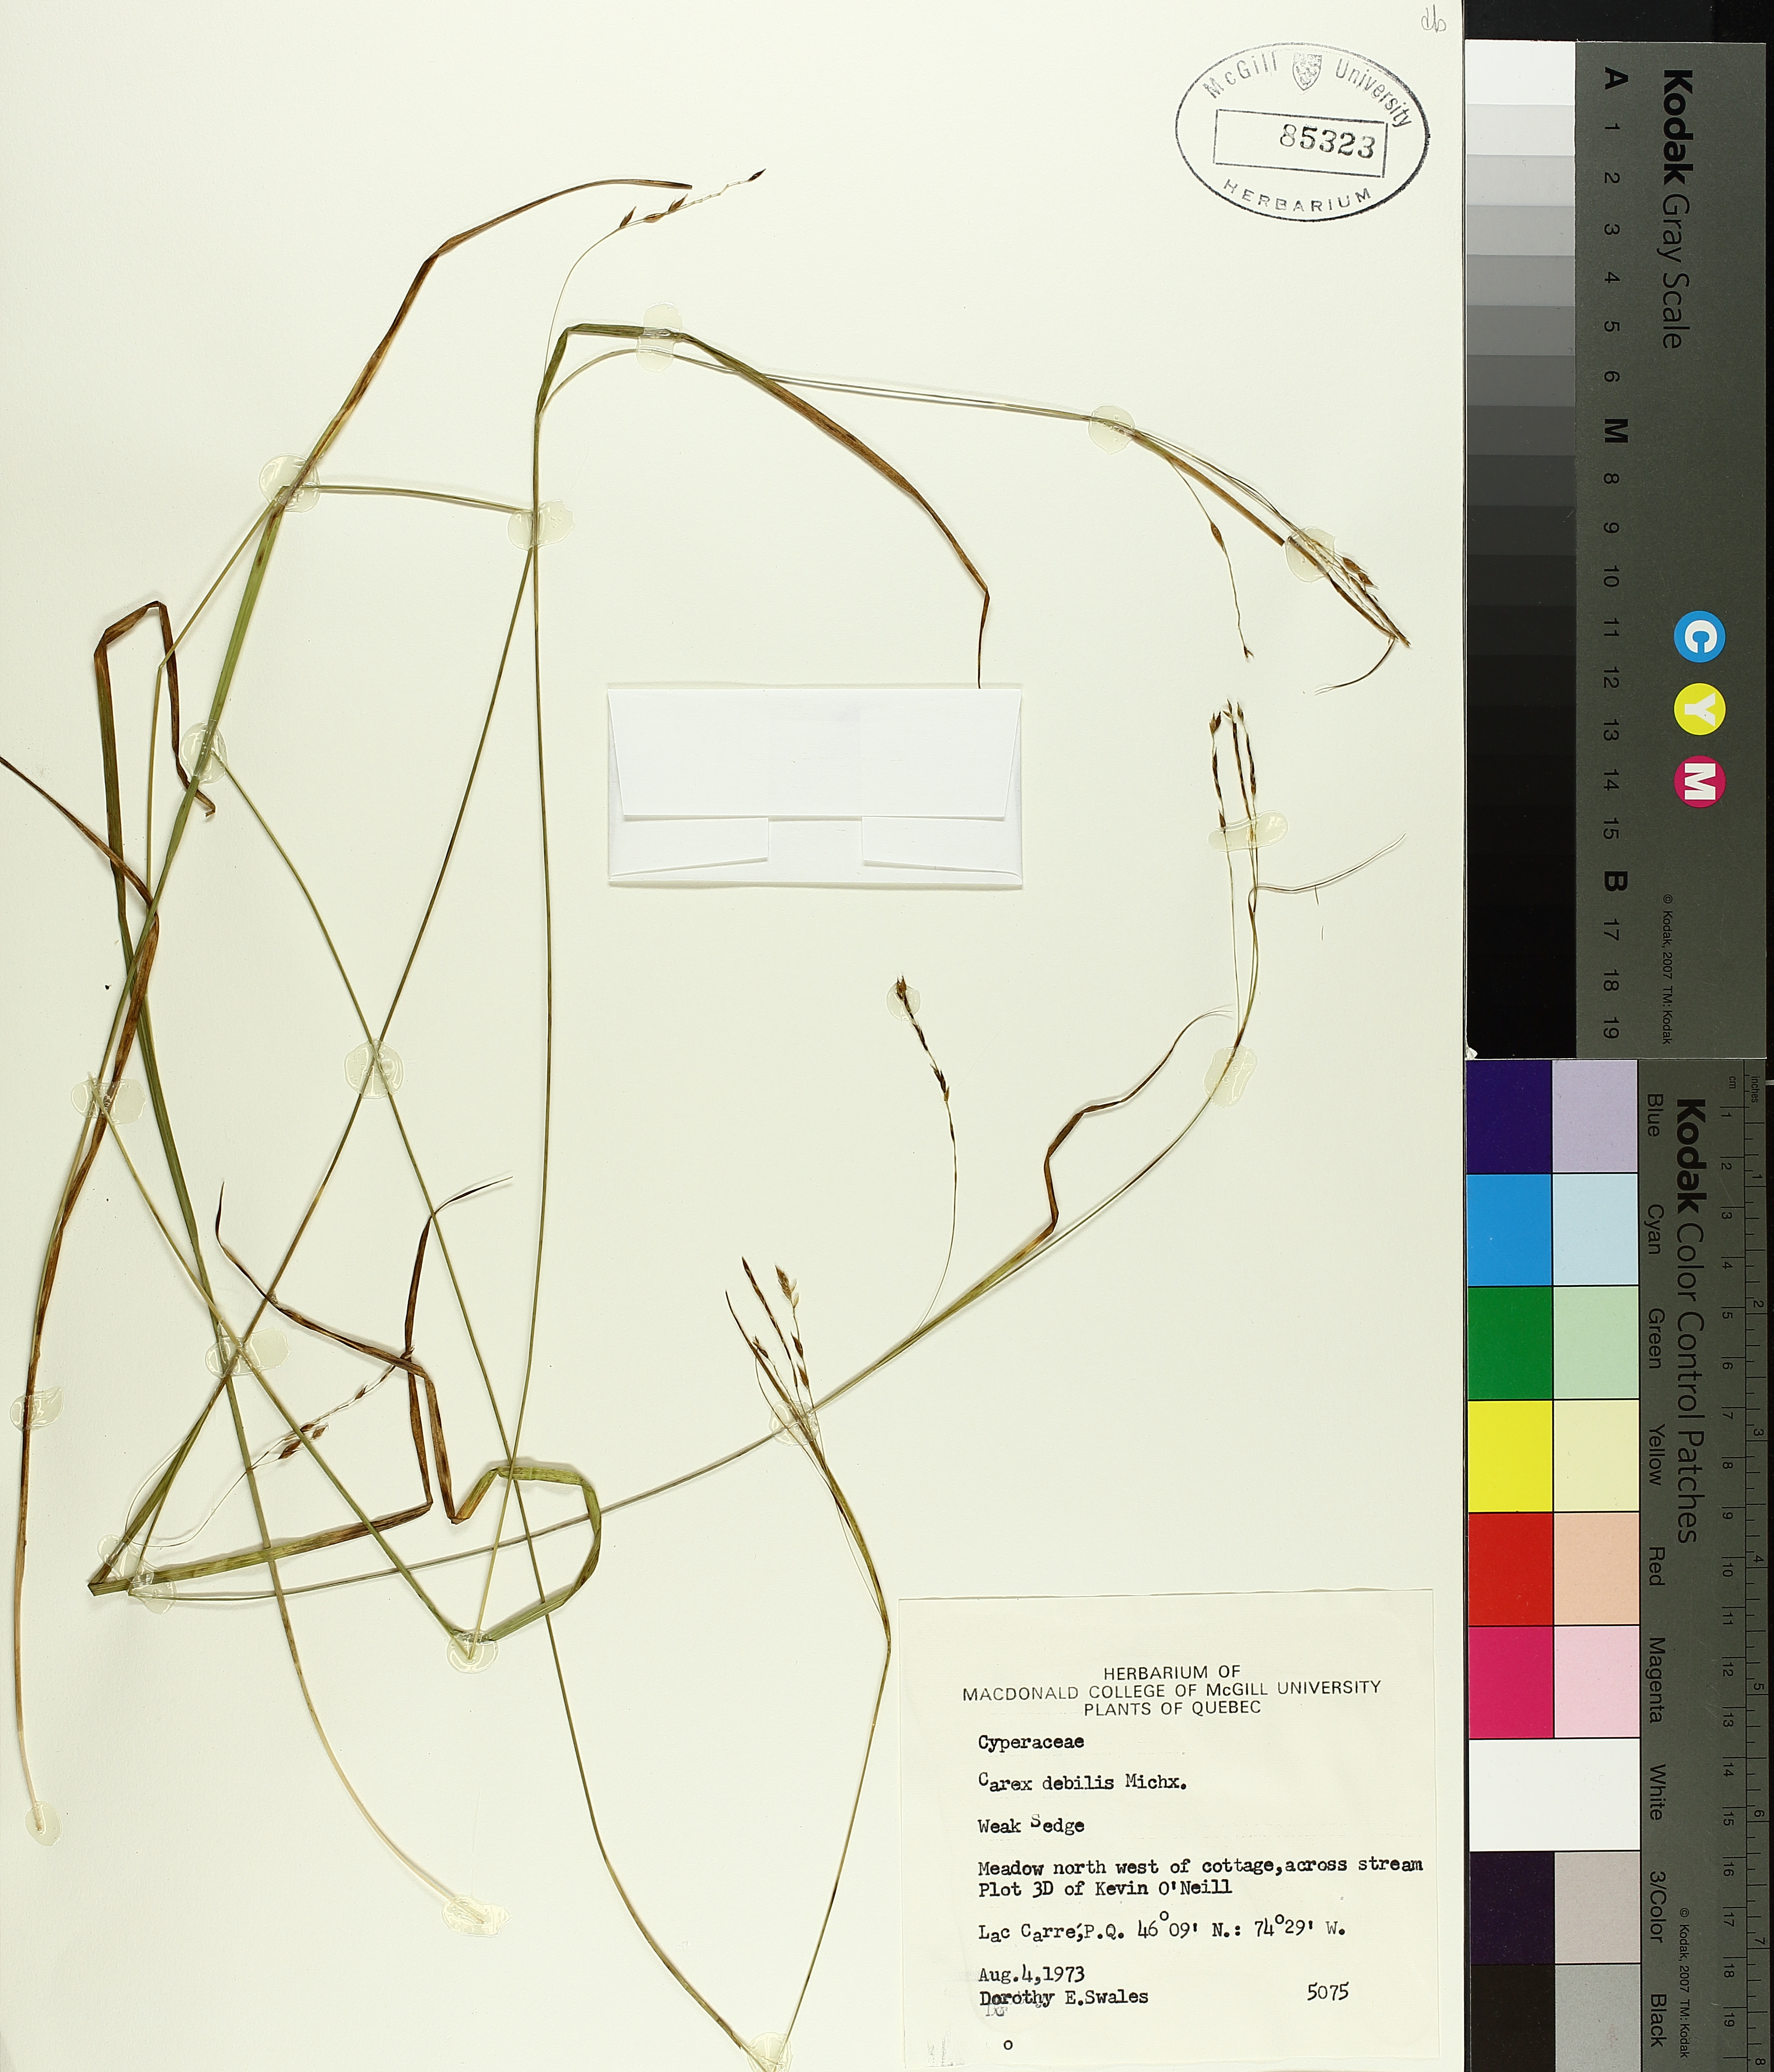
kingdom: Plantae
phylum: Tracheophyta
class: Liliopsida
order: Poales
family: Cyperaceae
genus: Carex
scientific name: Carex debilis
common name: White-edge sedge
